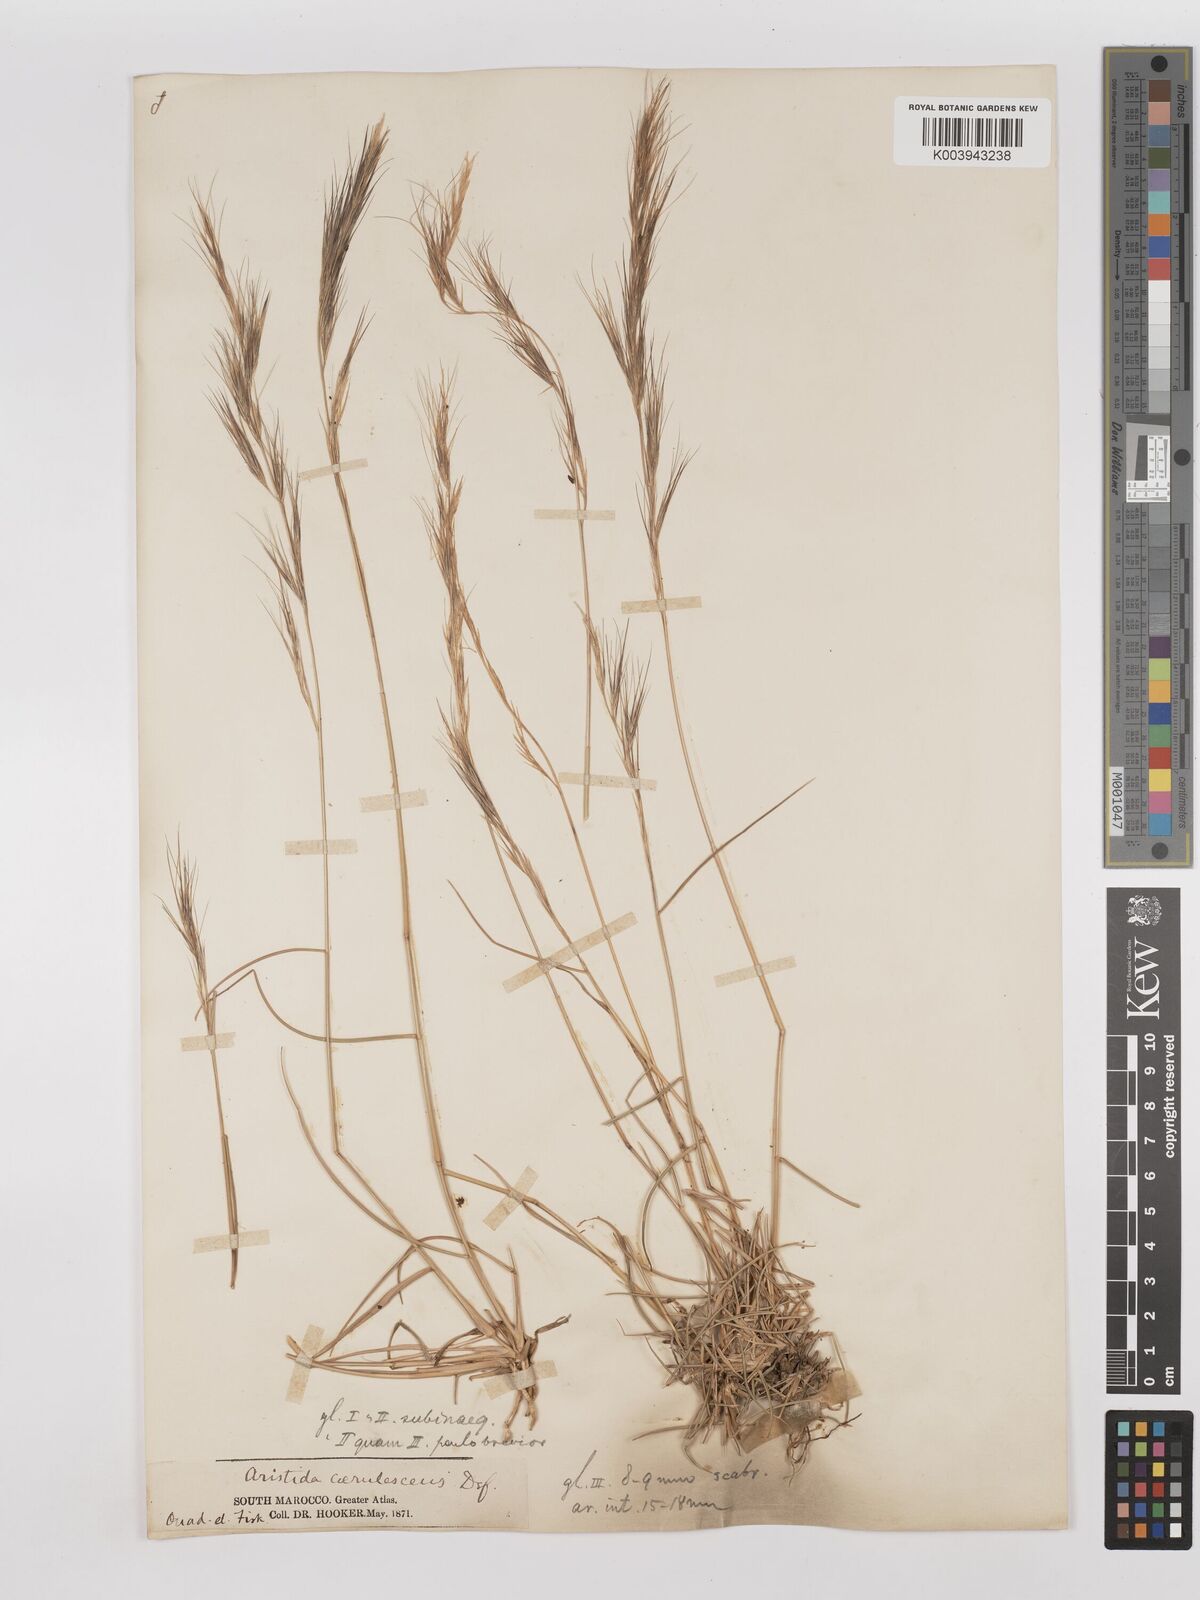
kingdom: Plantae
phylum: Tracheophyta
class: Liliopsida
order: Poales
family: Poaceae
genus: Aristida
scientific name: Aristida adscensionis
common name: Sixweeks threeawn
